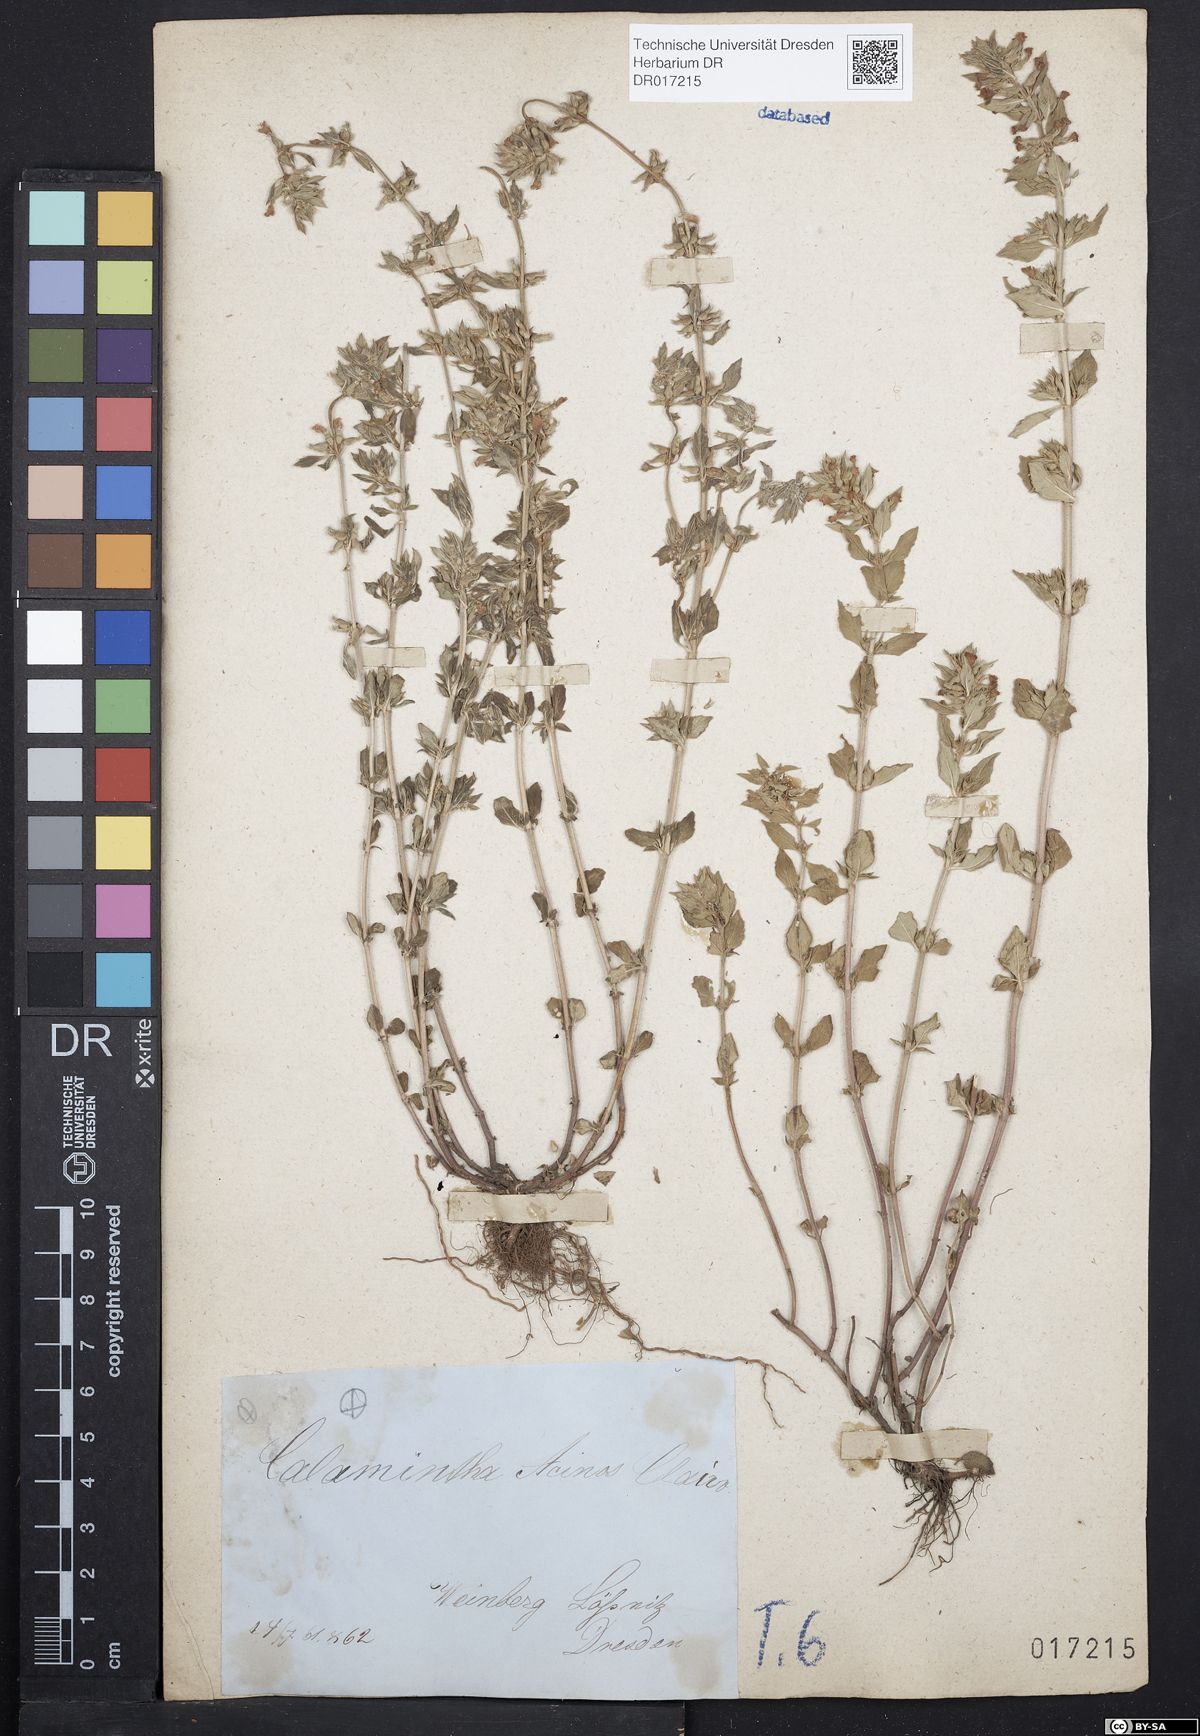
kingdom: Plantae
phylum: Tracheophyta
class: Magnoliopsida
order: Lamiales
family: Lamiaceae
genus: Clinopodium
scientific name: Clinopodium acinos
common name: Basil thyme
